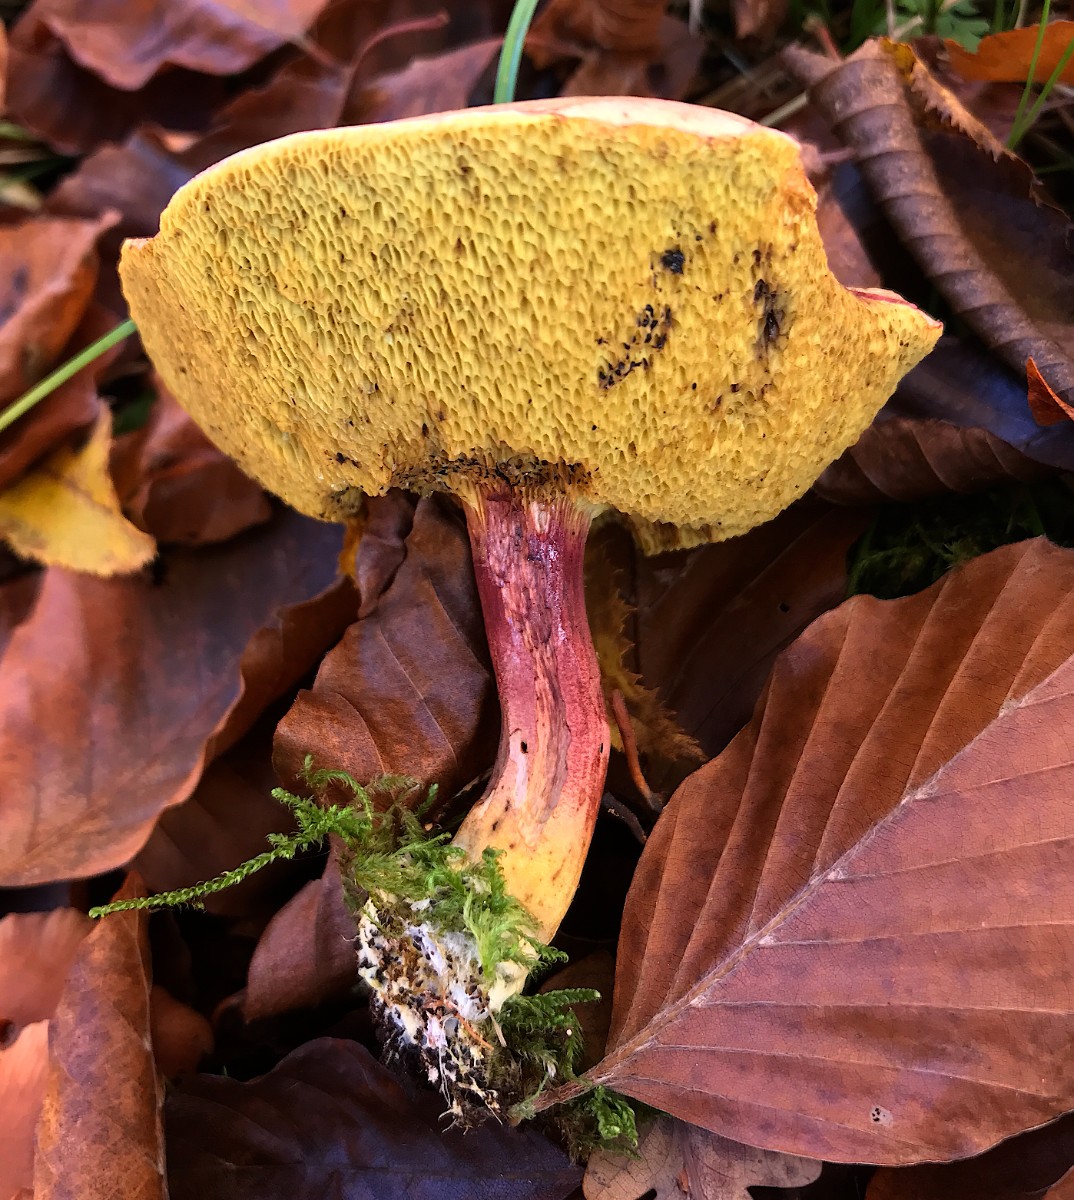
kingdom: Fungi
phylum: Basidiomycota
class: Agaricomycetes
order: Boletales
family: Boletaceae
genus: Xerocomellus
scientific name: Xerocomellus chrysenteron
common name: rødsprukken rørhat
